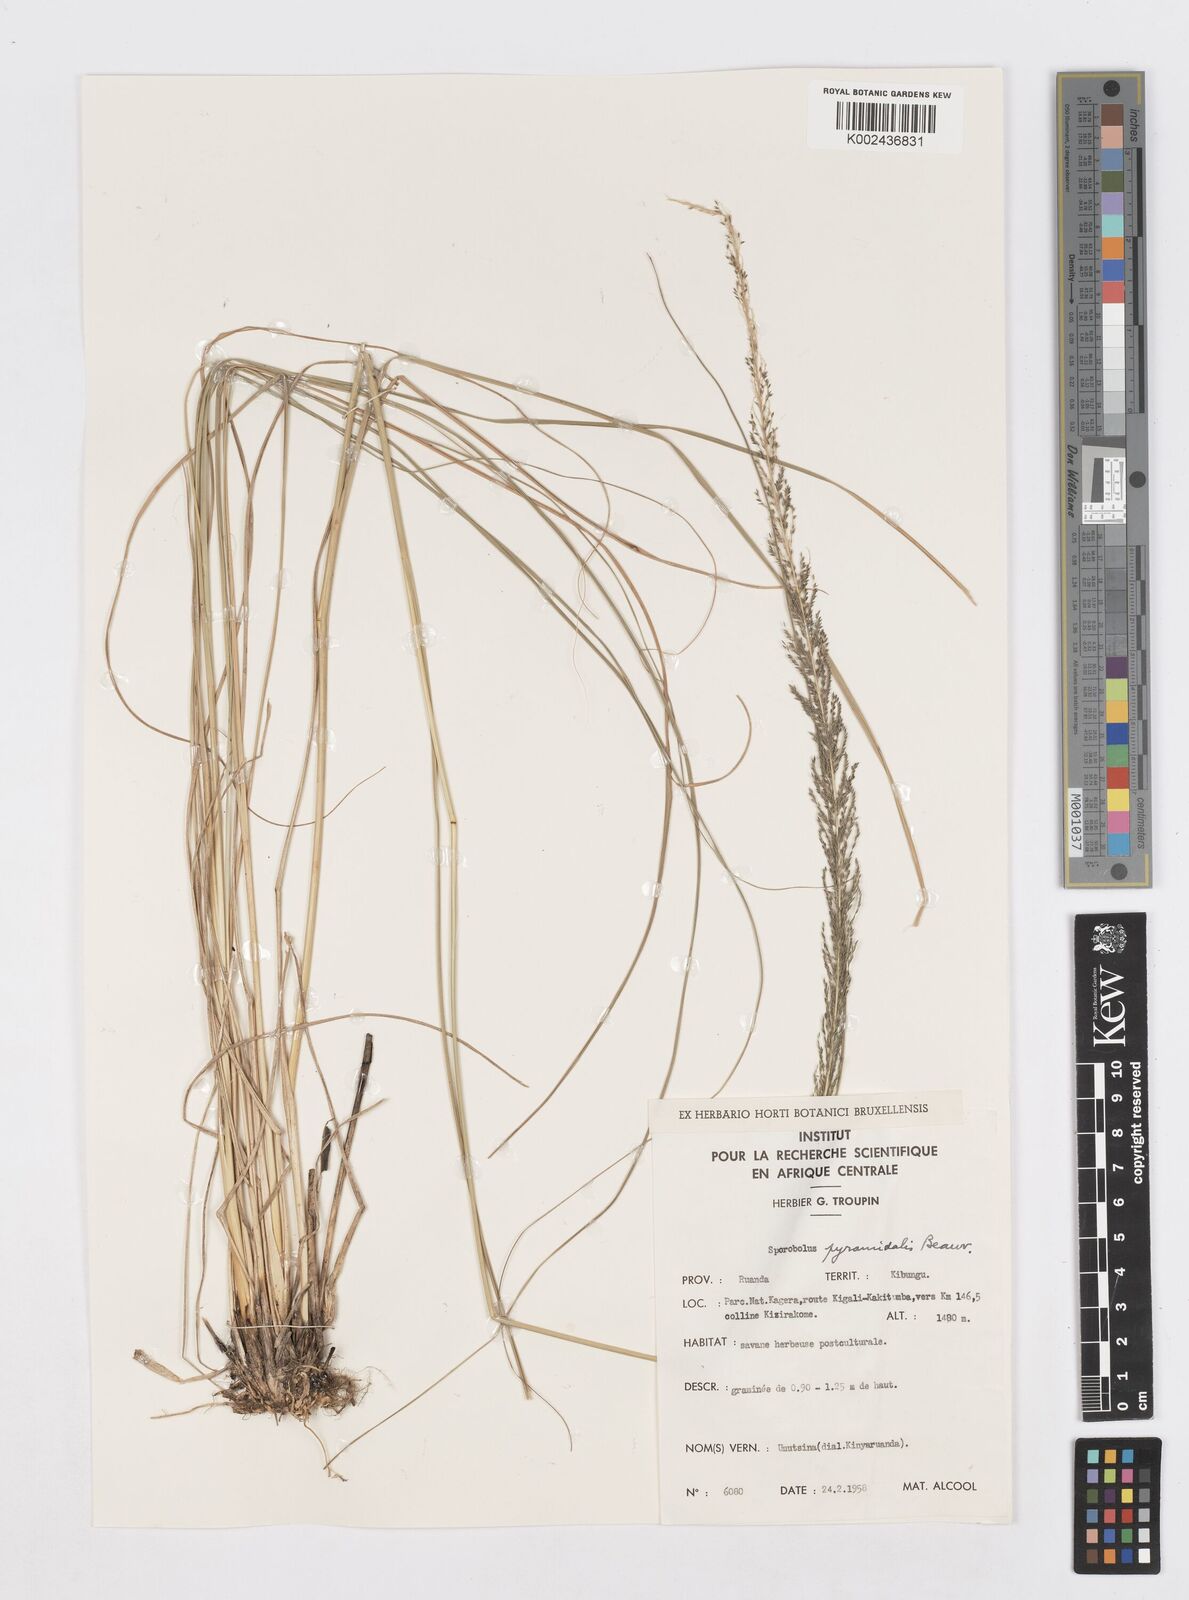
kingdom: Plantae
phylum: Tracheophyta
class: Liliopsida
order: Poales
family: Poaceae
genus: Sporobolus
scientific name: Sporobolus pyramidalis
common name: West indian dropseed
